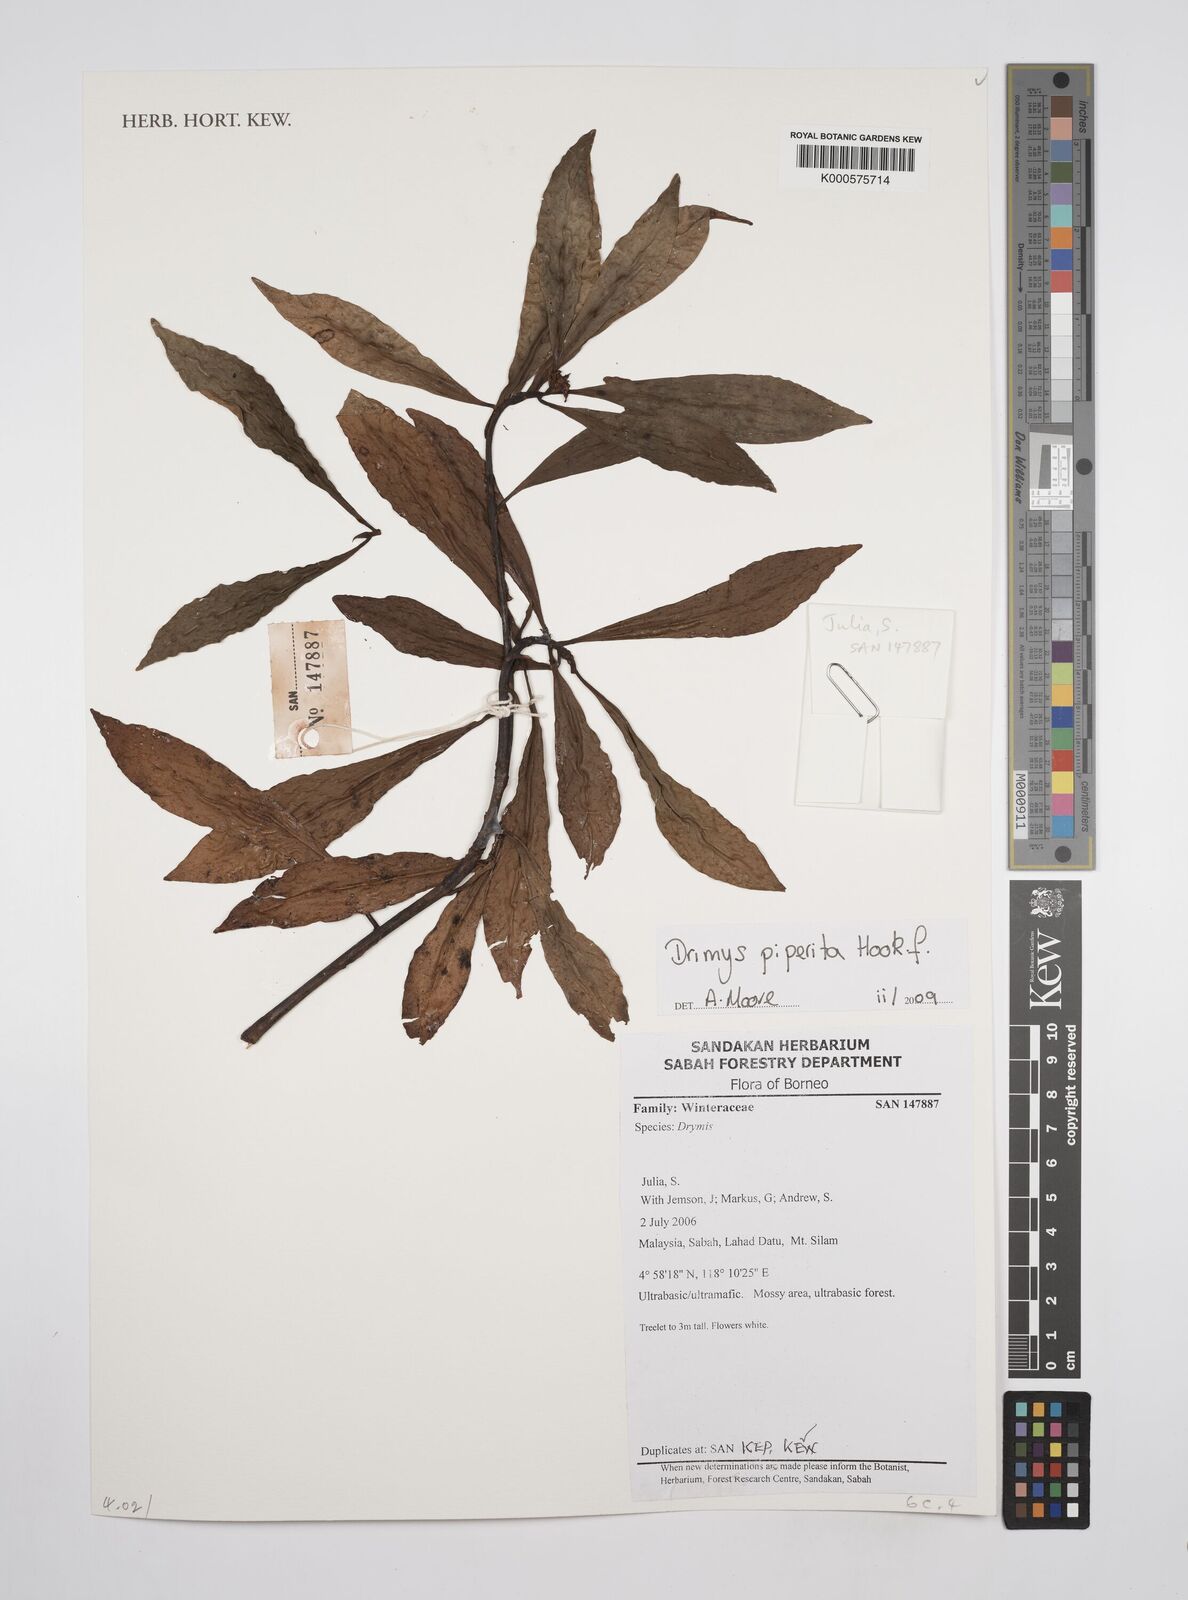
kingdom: Plantae
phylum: Tracheophyta
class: Magnoliopsida
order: Canellales
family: Winteraceae
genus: Drimys
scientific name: Drimys piperita
